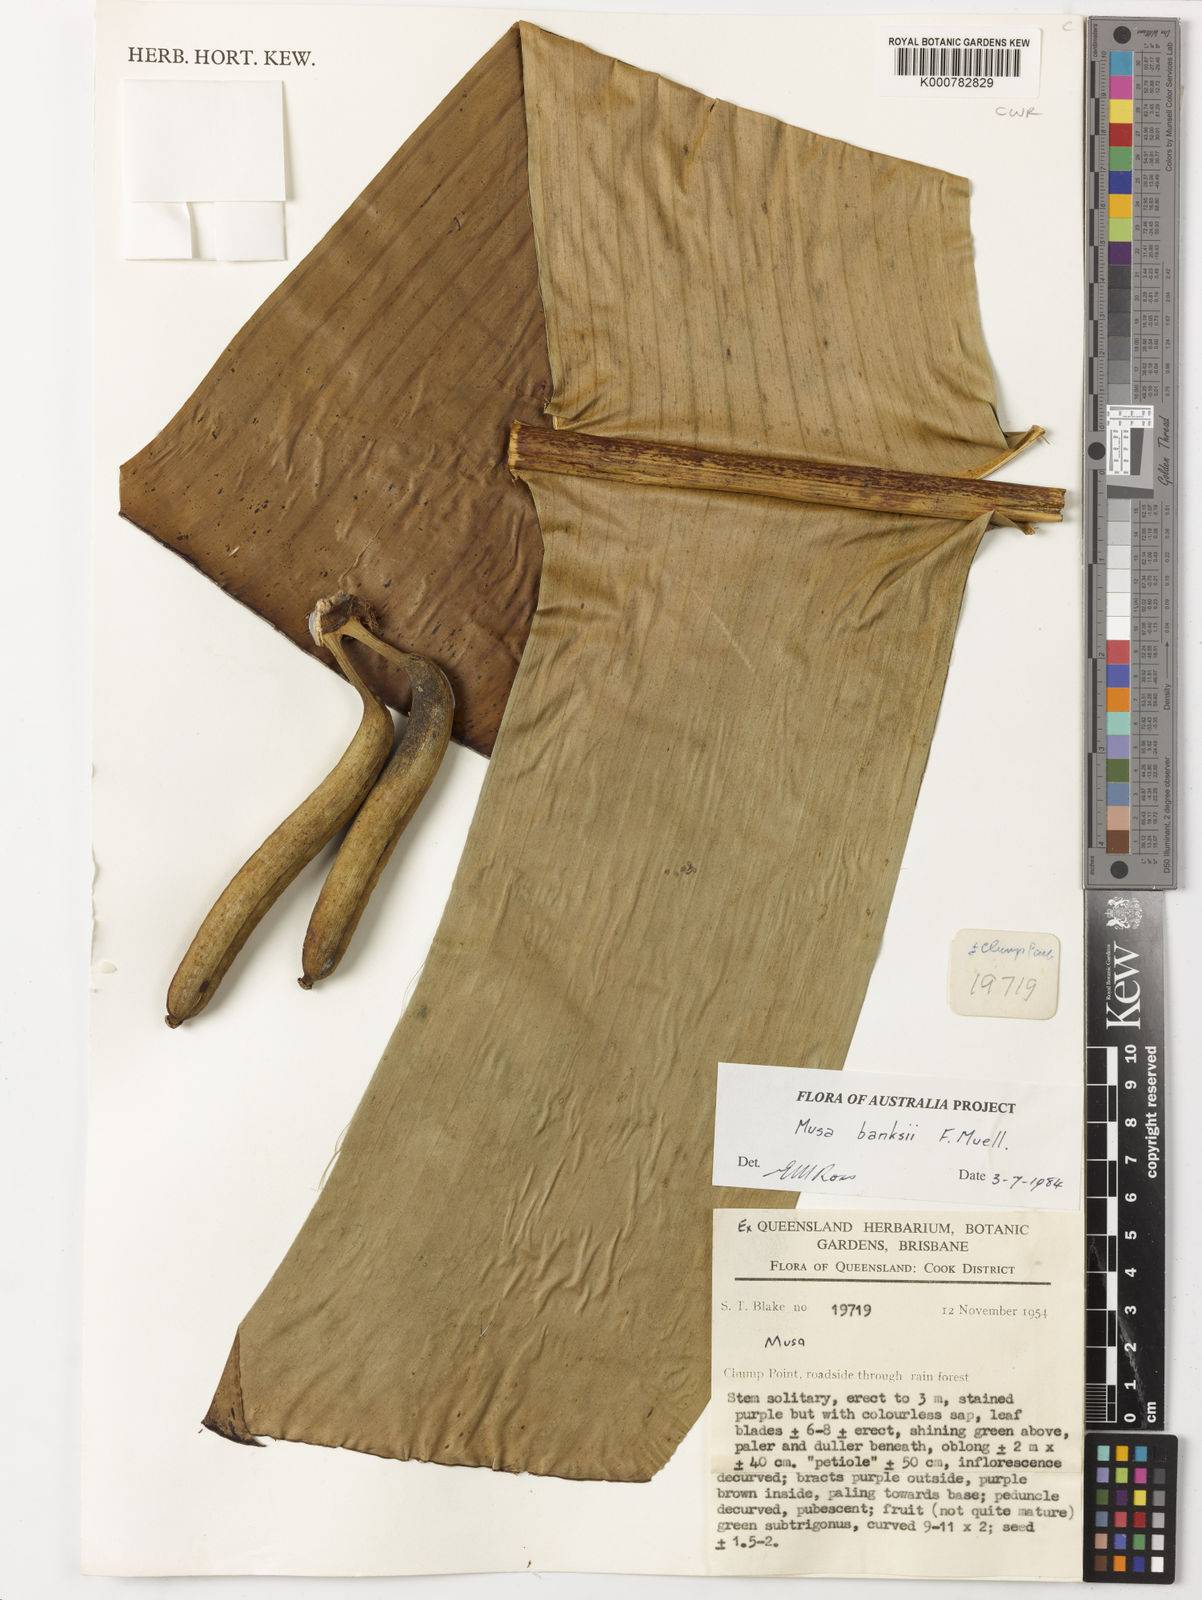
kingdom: Plantae
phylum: Tracheophyta
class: Liliopsida
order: Zingiberales
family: Musaceae
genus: Musa
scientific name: Musa banksii
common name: Maroon-stemmed banana
